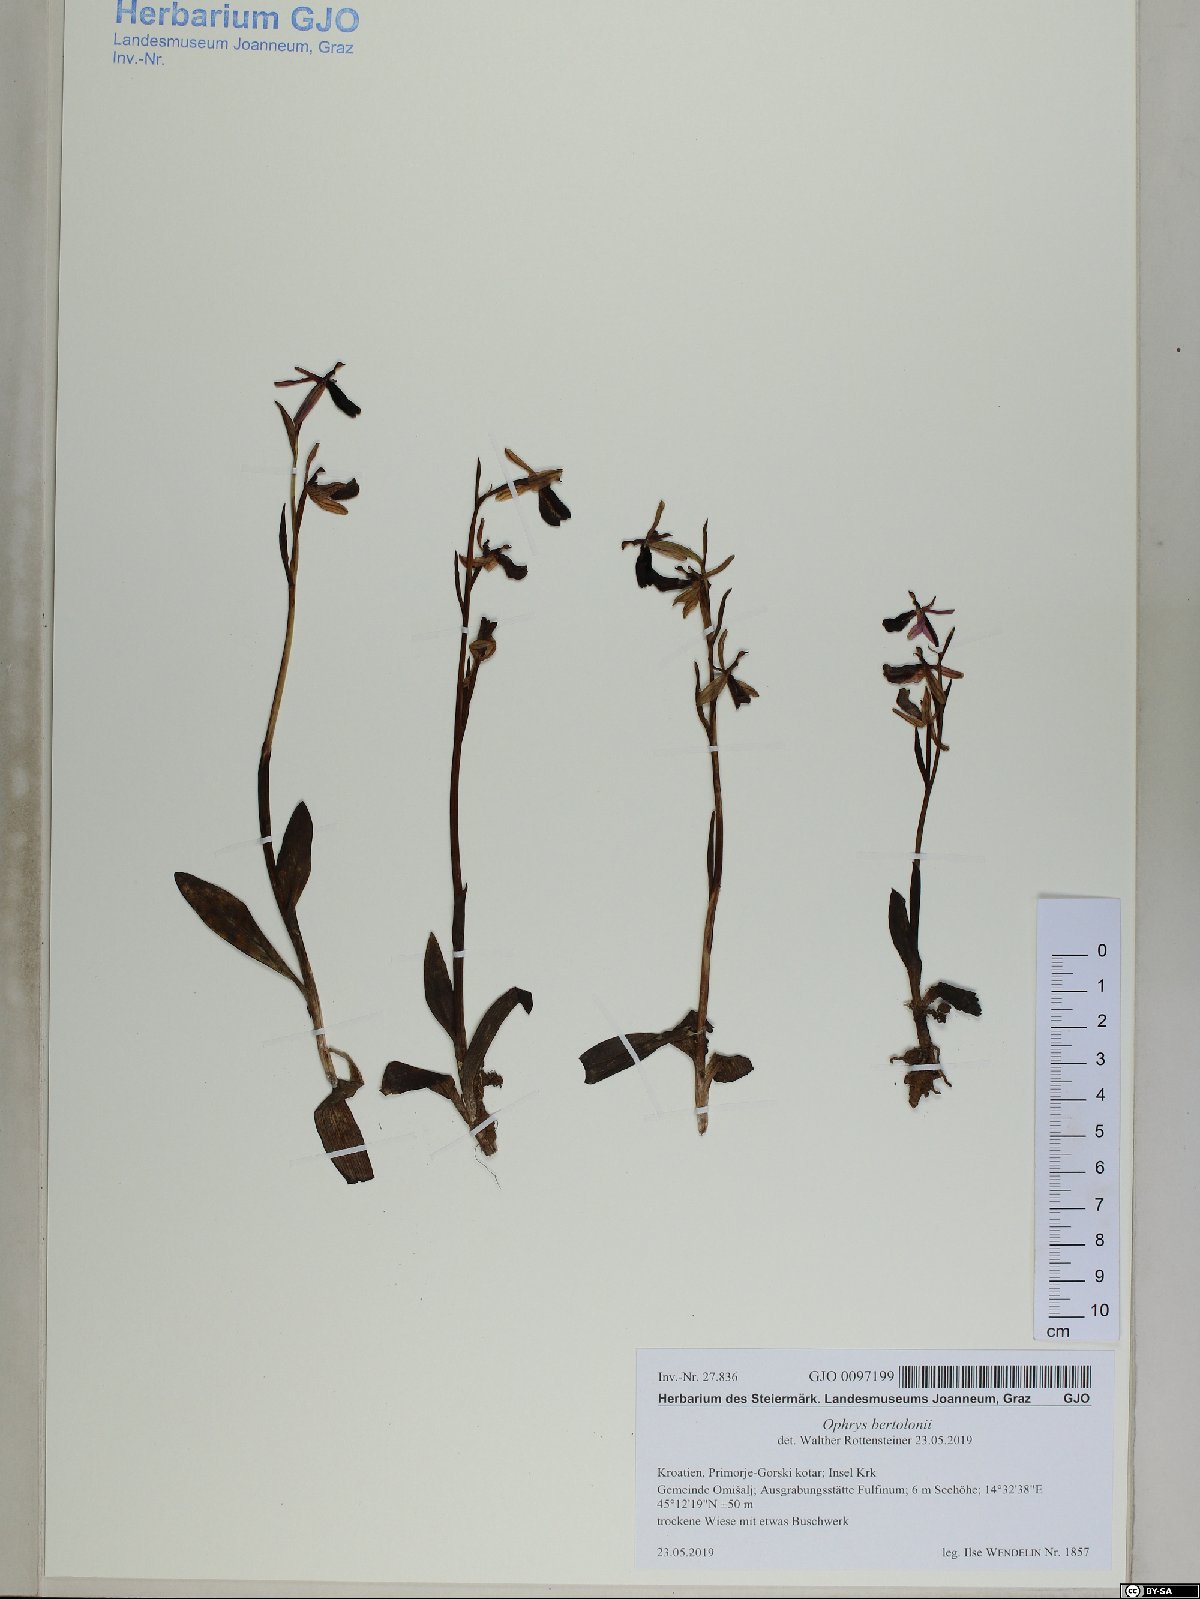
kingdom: Plantae
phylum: Tracheophyta
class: Liliopsida
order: Asparagales
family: Orchidaceae
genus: Ophrys
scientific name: Ophrys bertolonii
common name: Bertoloni's bee orchid
